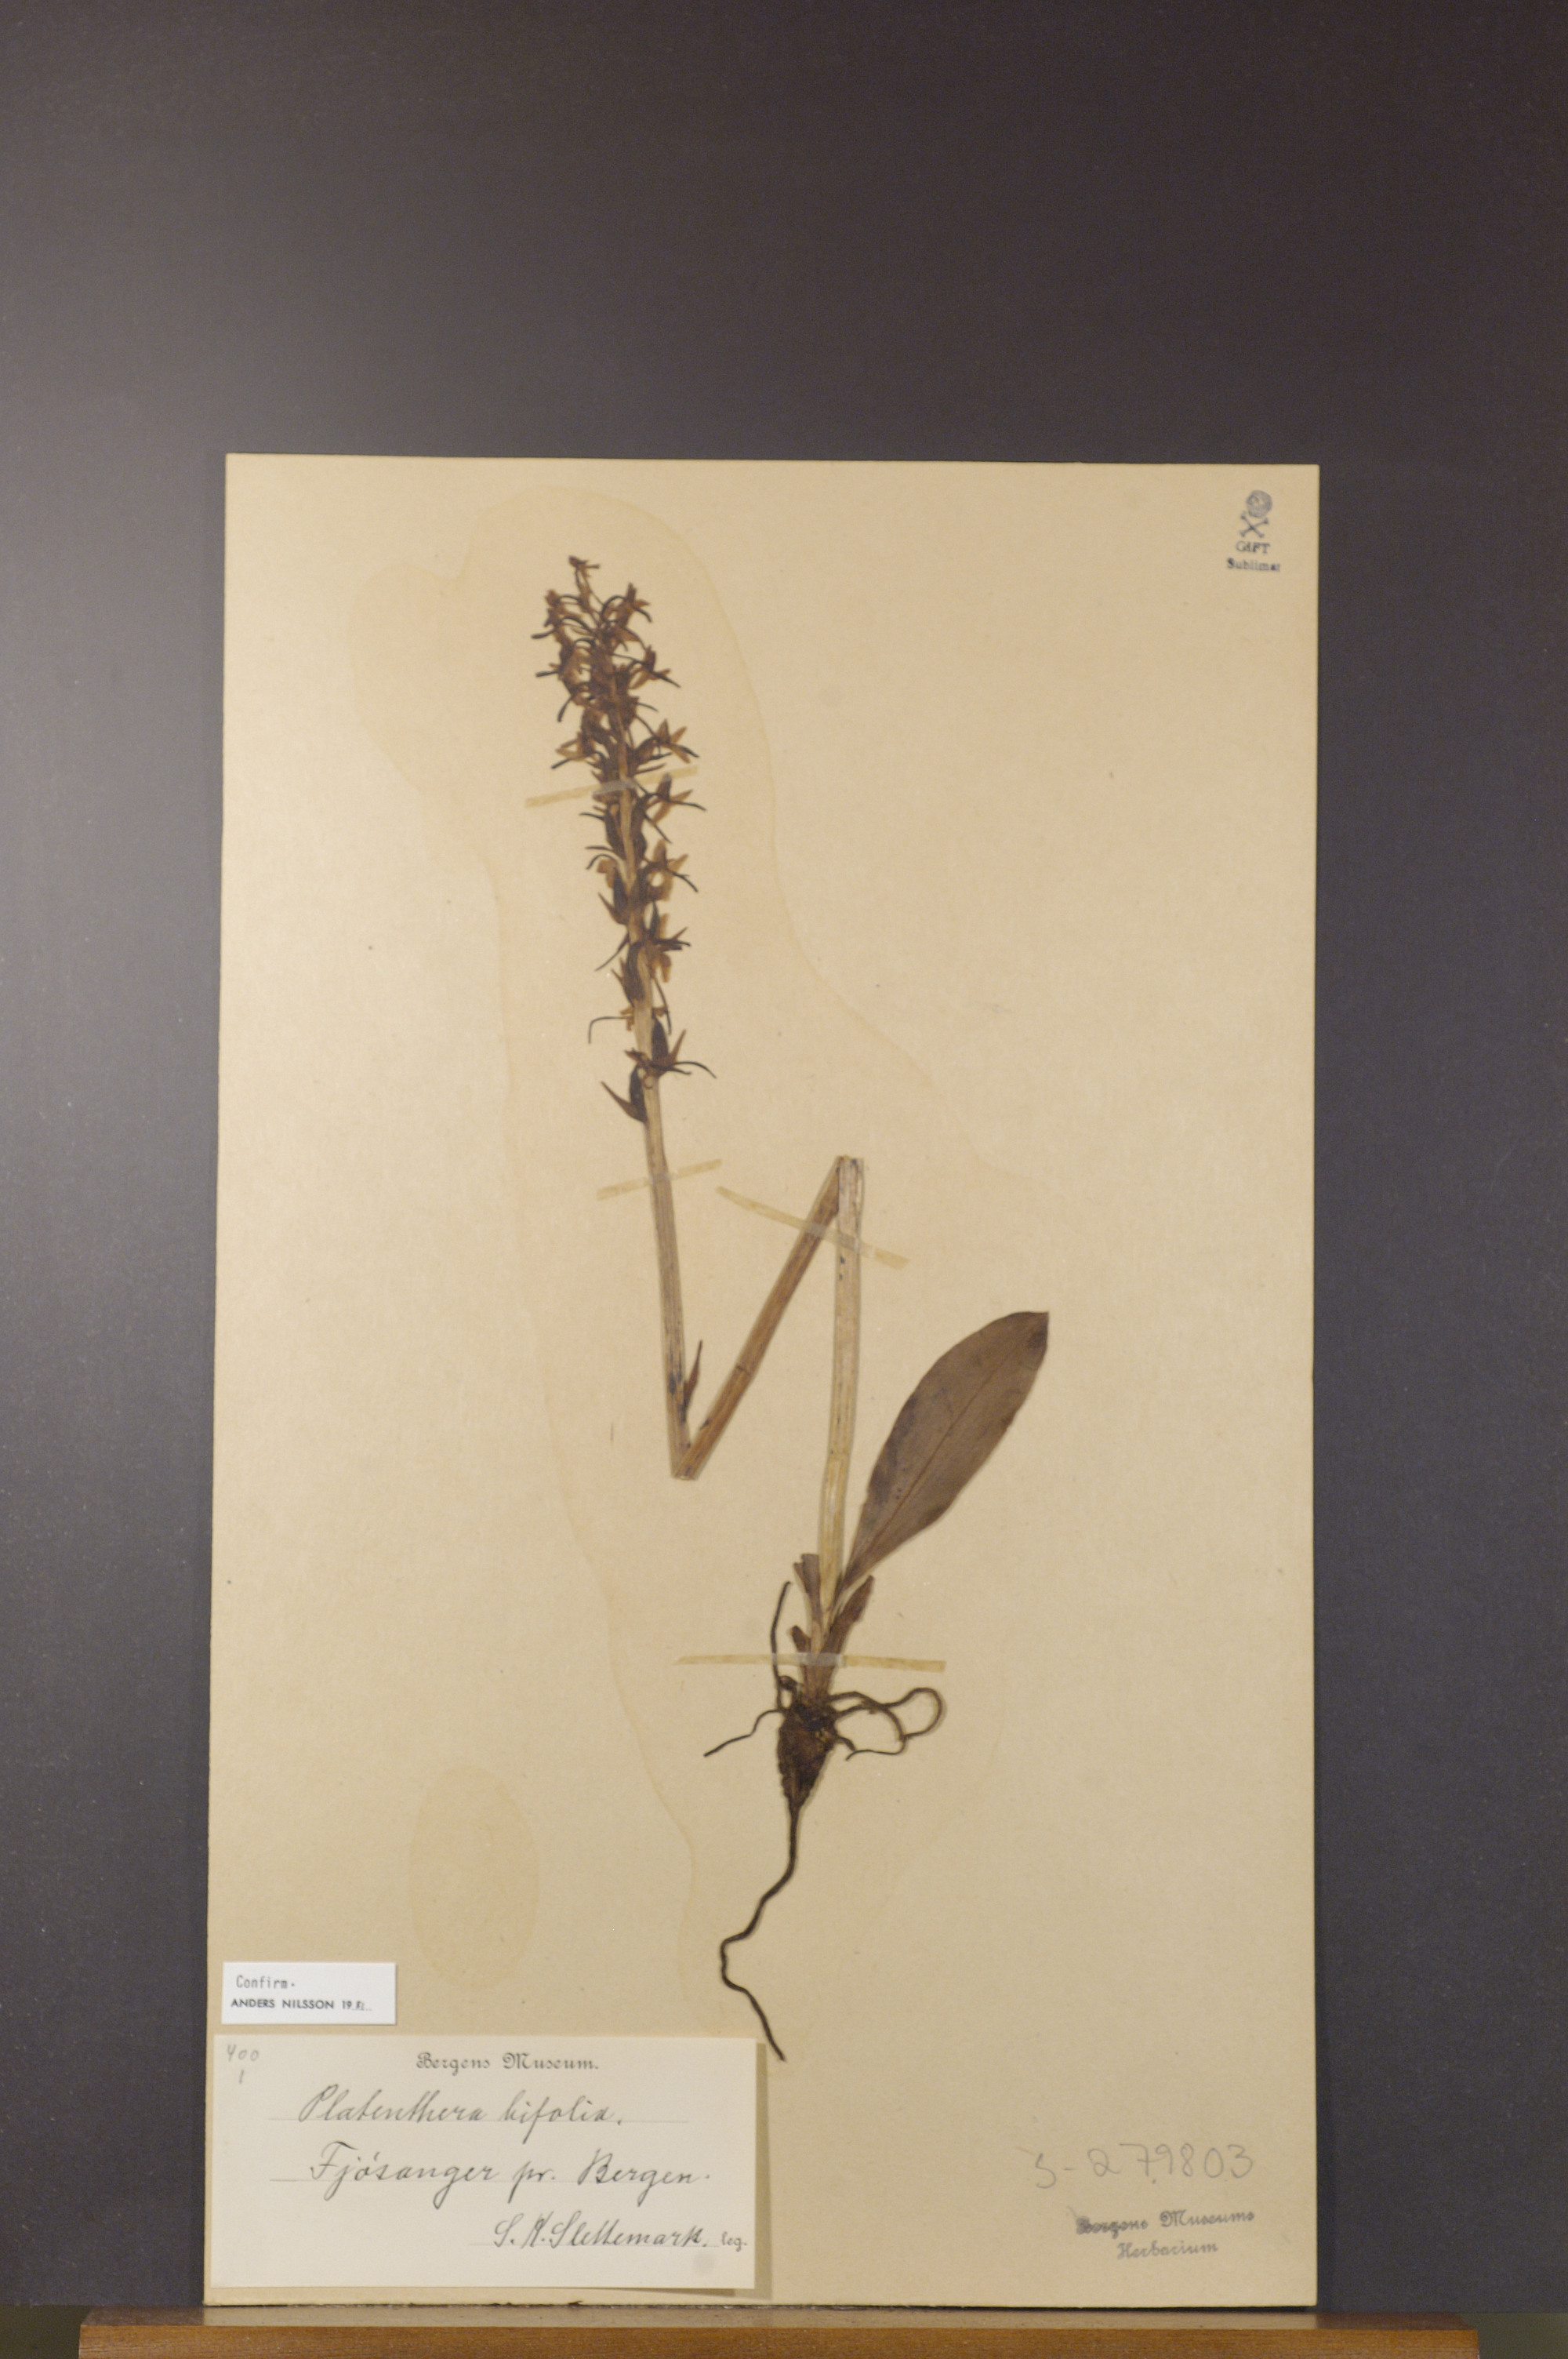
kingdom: Plantae
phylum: Tracheophyta
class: Liliopsida
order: Asparagales
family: Orchidaceae
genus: Platanthera
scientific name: Platanthera bifolia
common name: Lesser butterfly-orchid
